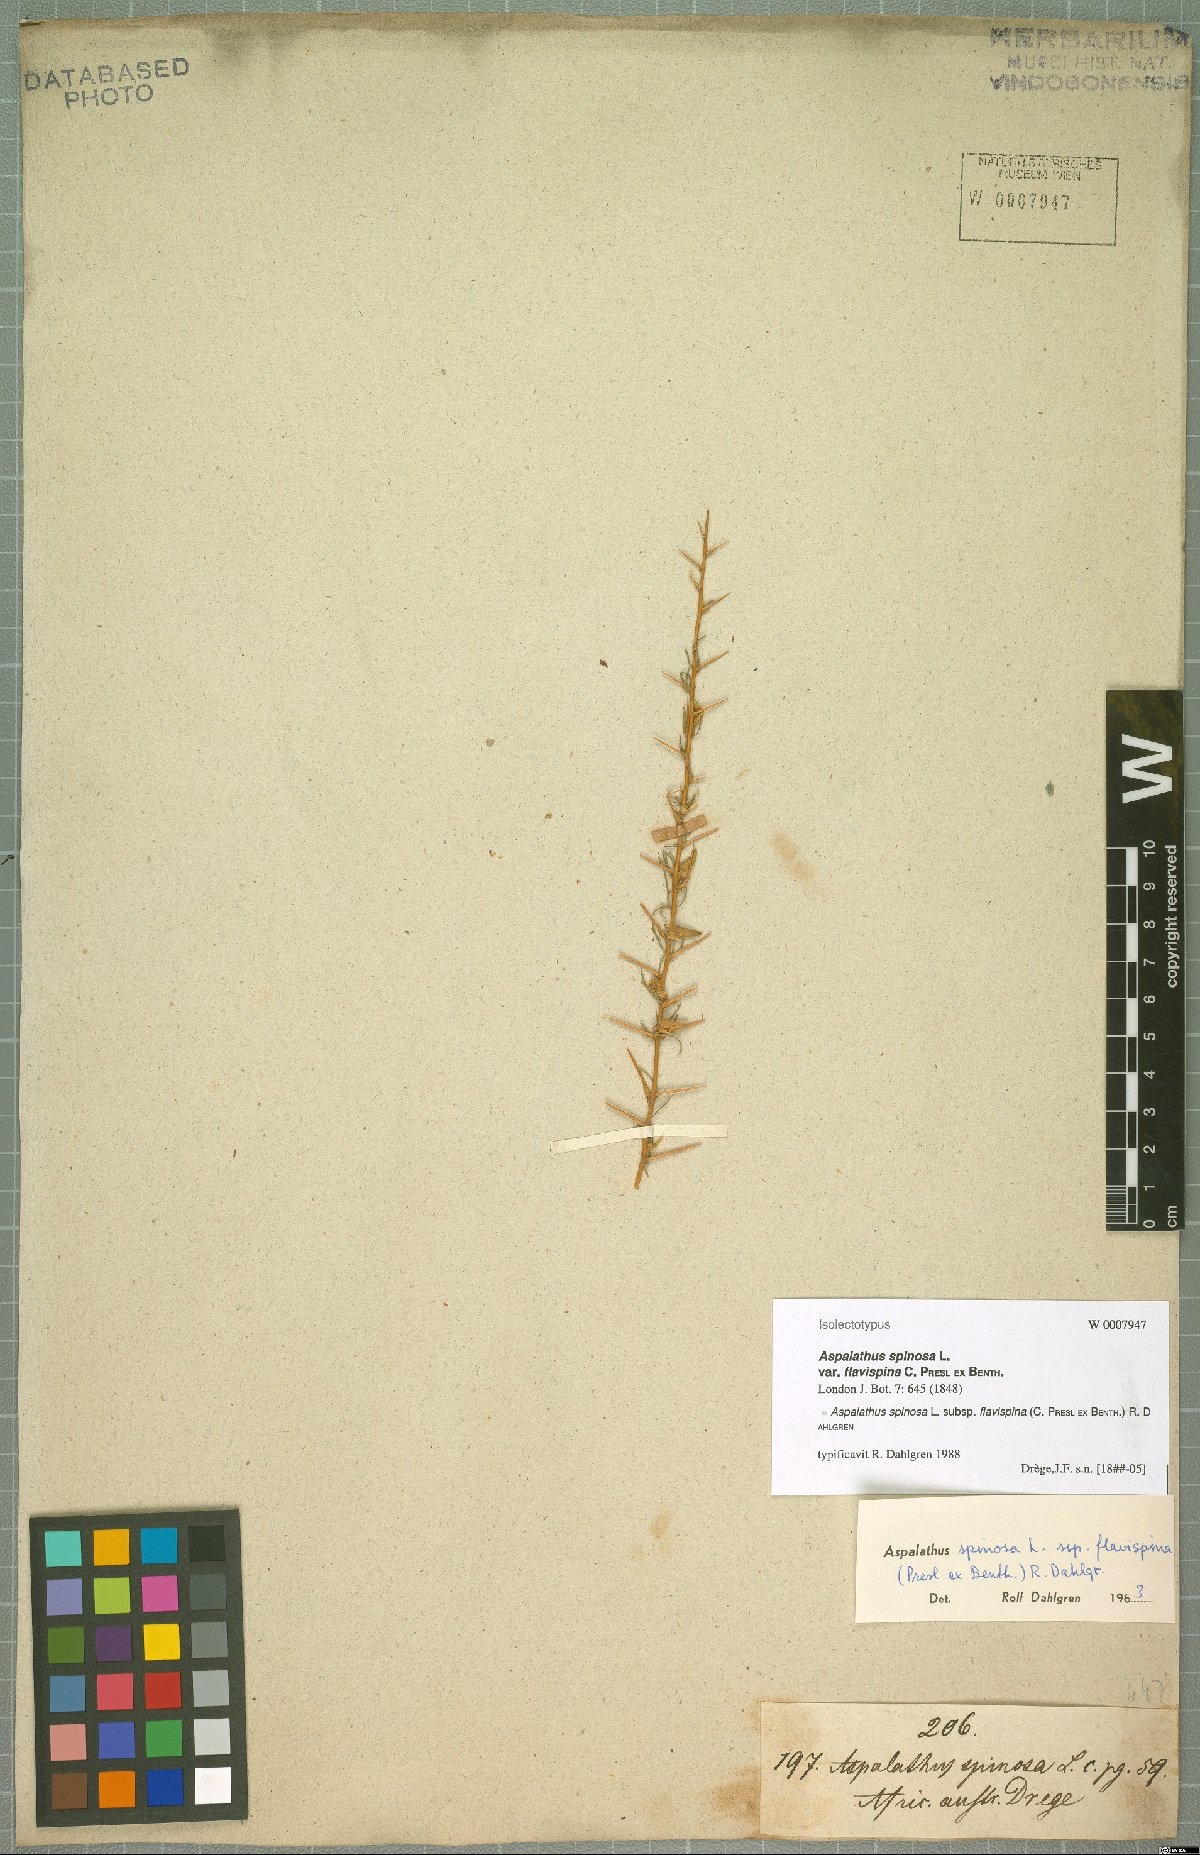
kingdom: Plantae
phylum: Tracheophyta
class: Magnoliopsida
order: Fabales
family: Fabaceae
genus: Aspalathus
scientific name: Aspalathus spinosa
